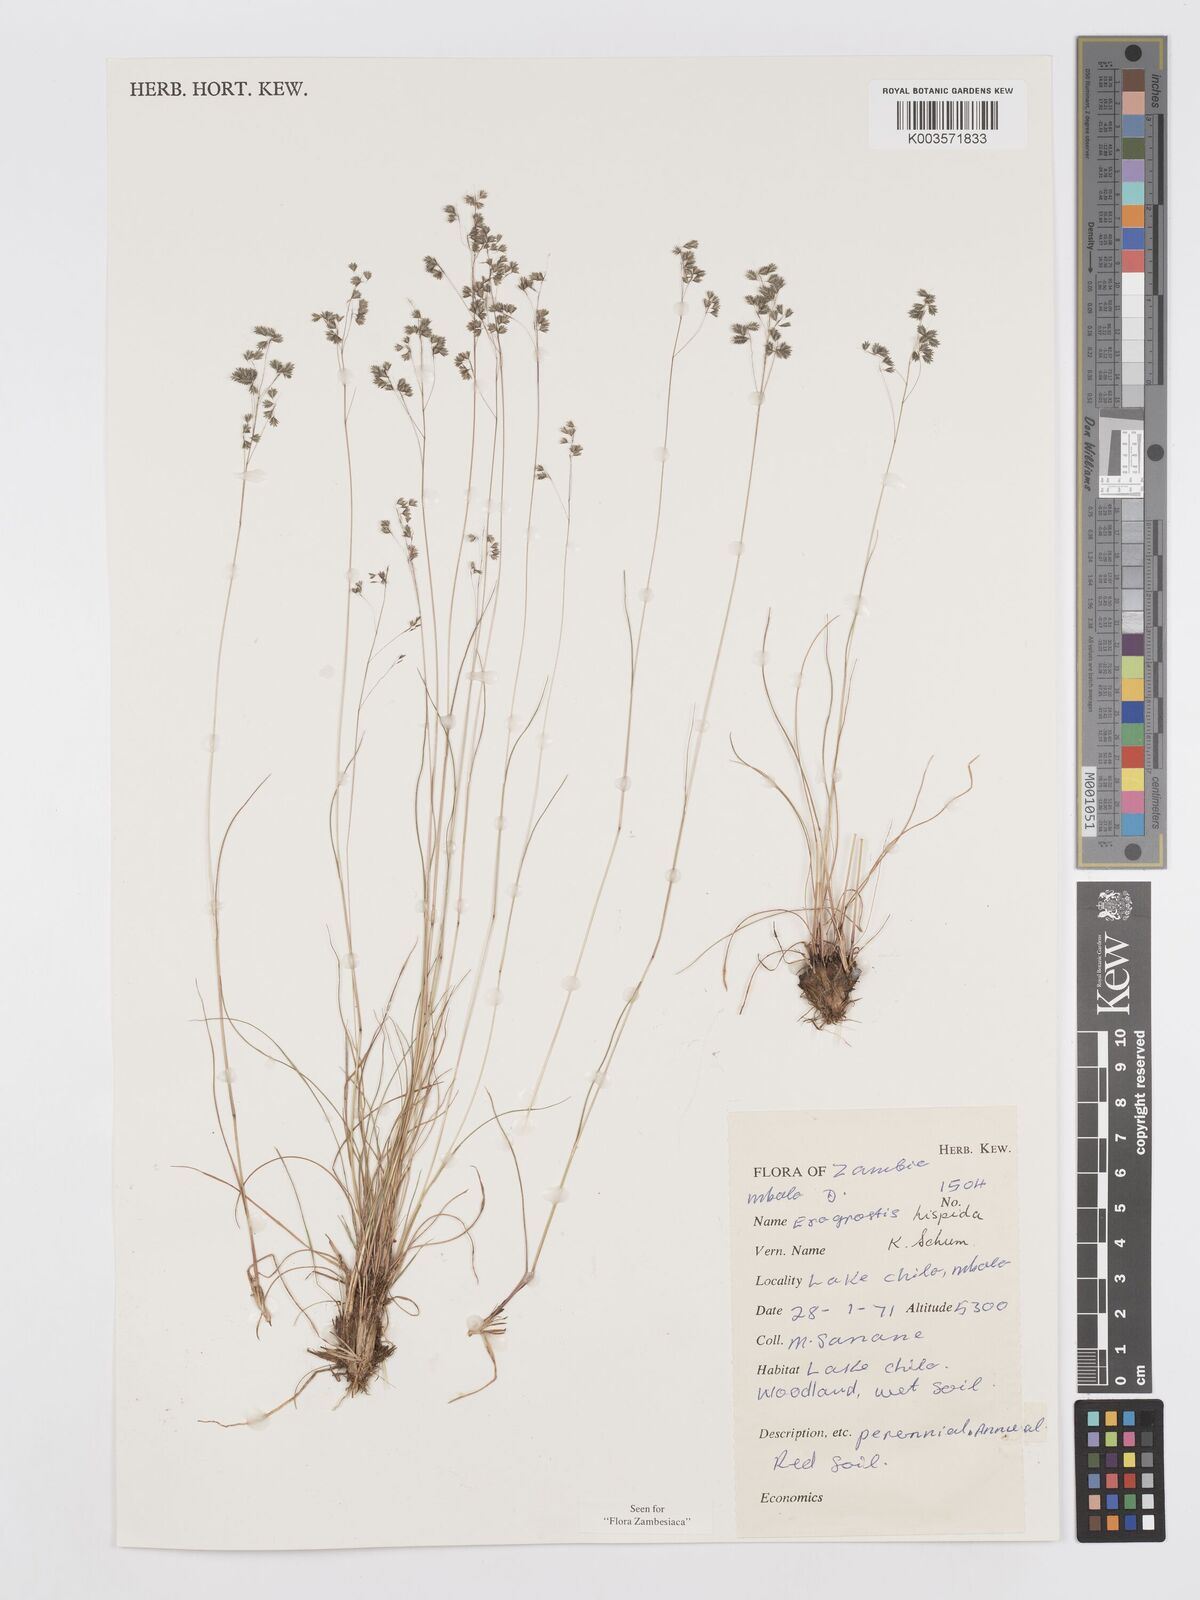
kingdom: Plantae
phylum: Tracheophyta
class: Liliopsida
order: Poales
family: Poaceae
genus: Eragrostis
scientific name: Eragrostis hispida
